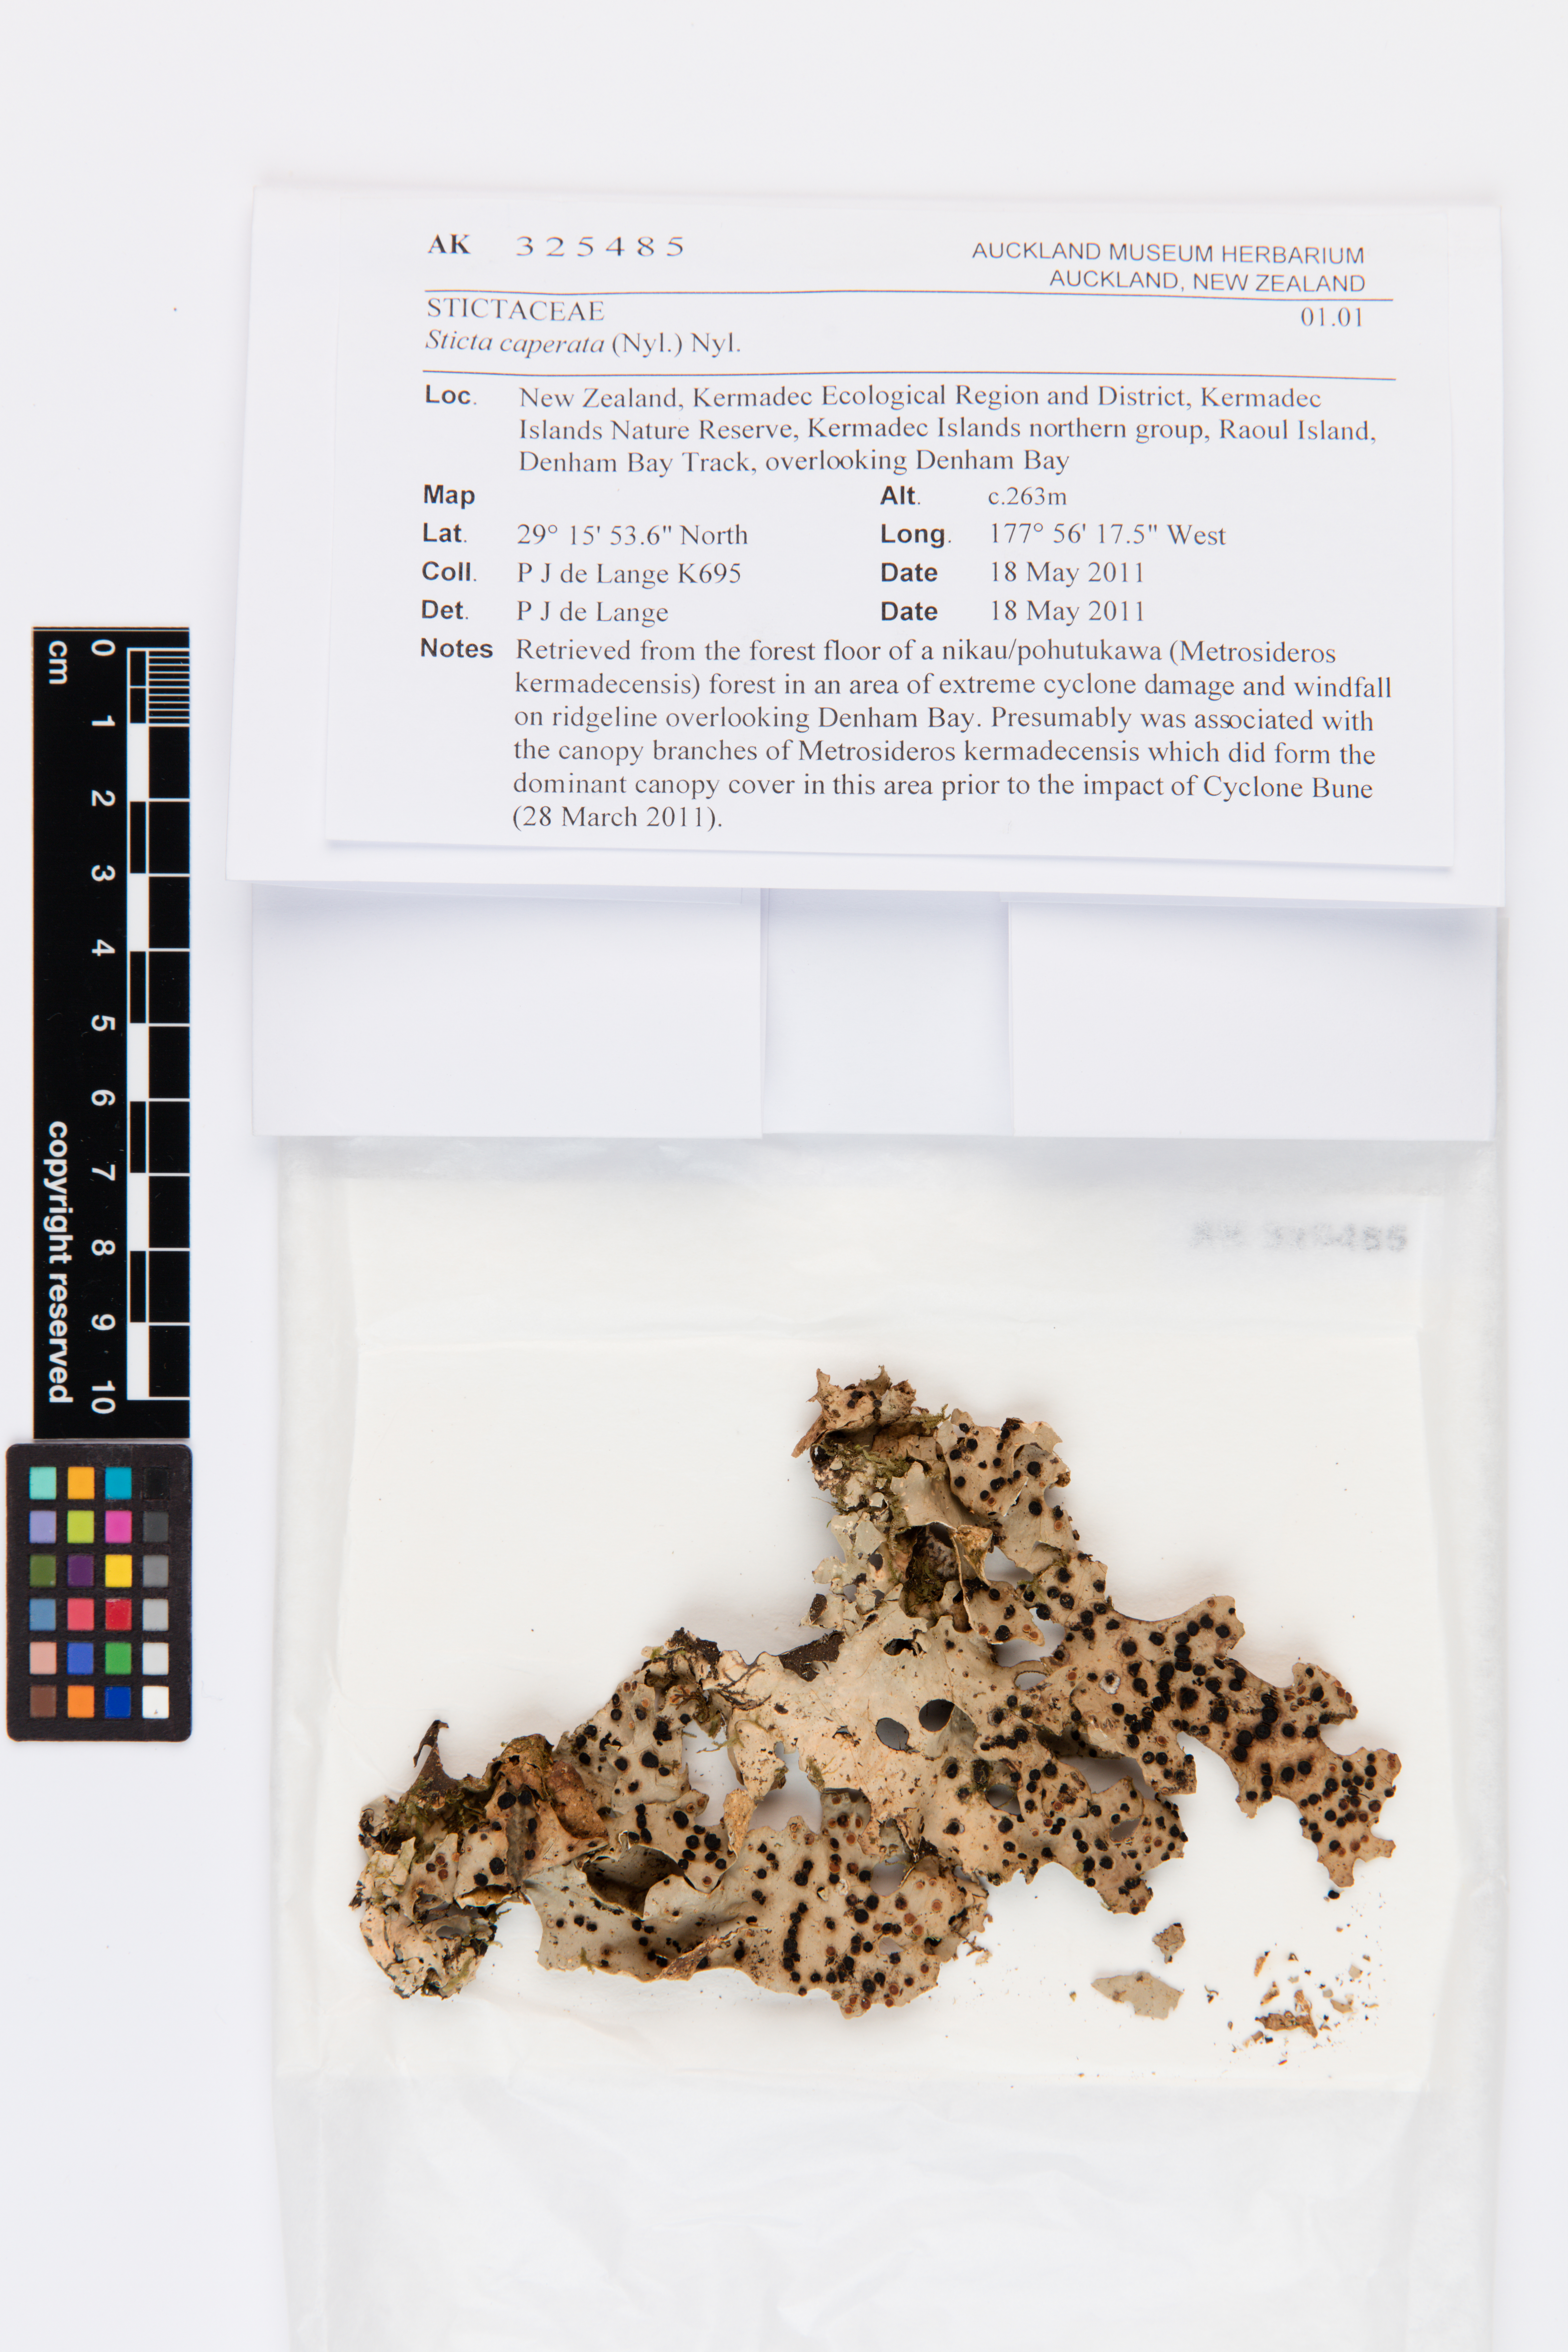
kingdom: Fungi
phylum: Ascomycota
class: Lecanoromycetes
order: Peltigerales
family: Lobariaceae
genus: Sticta
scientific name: Sticta caperata
